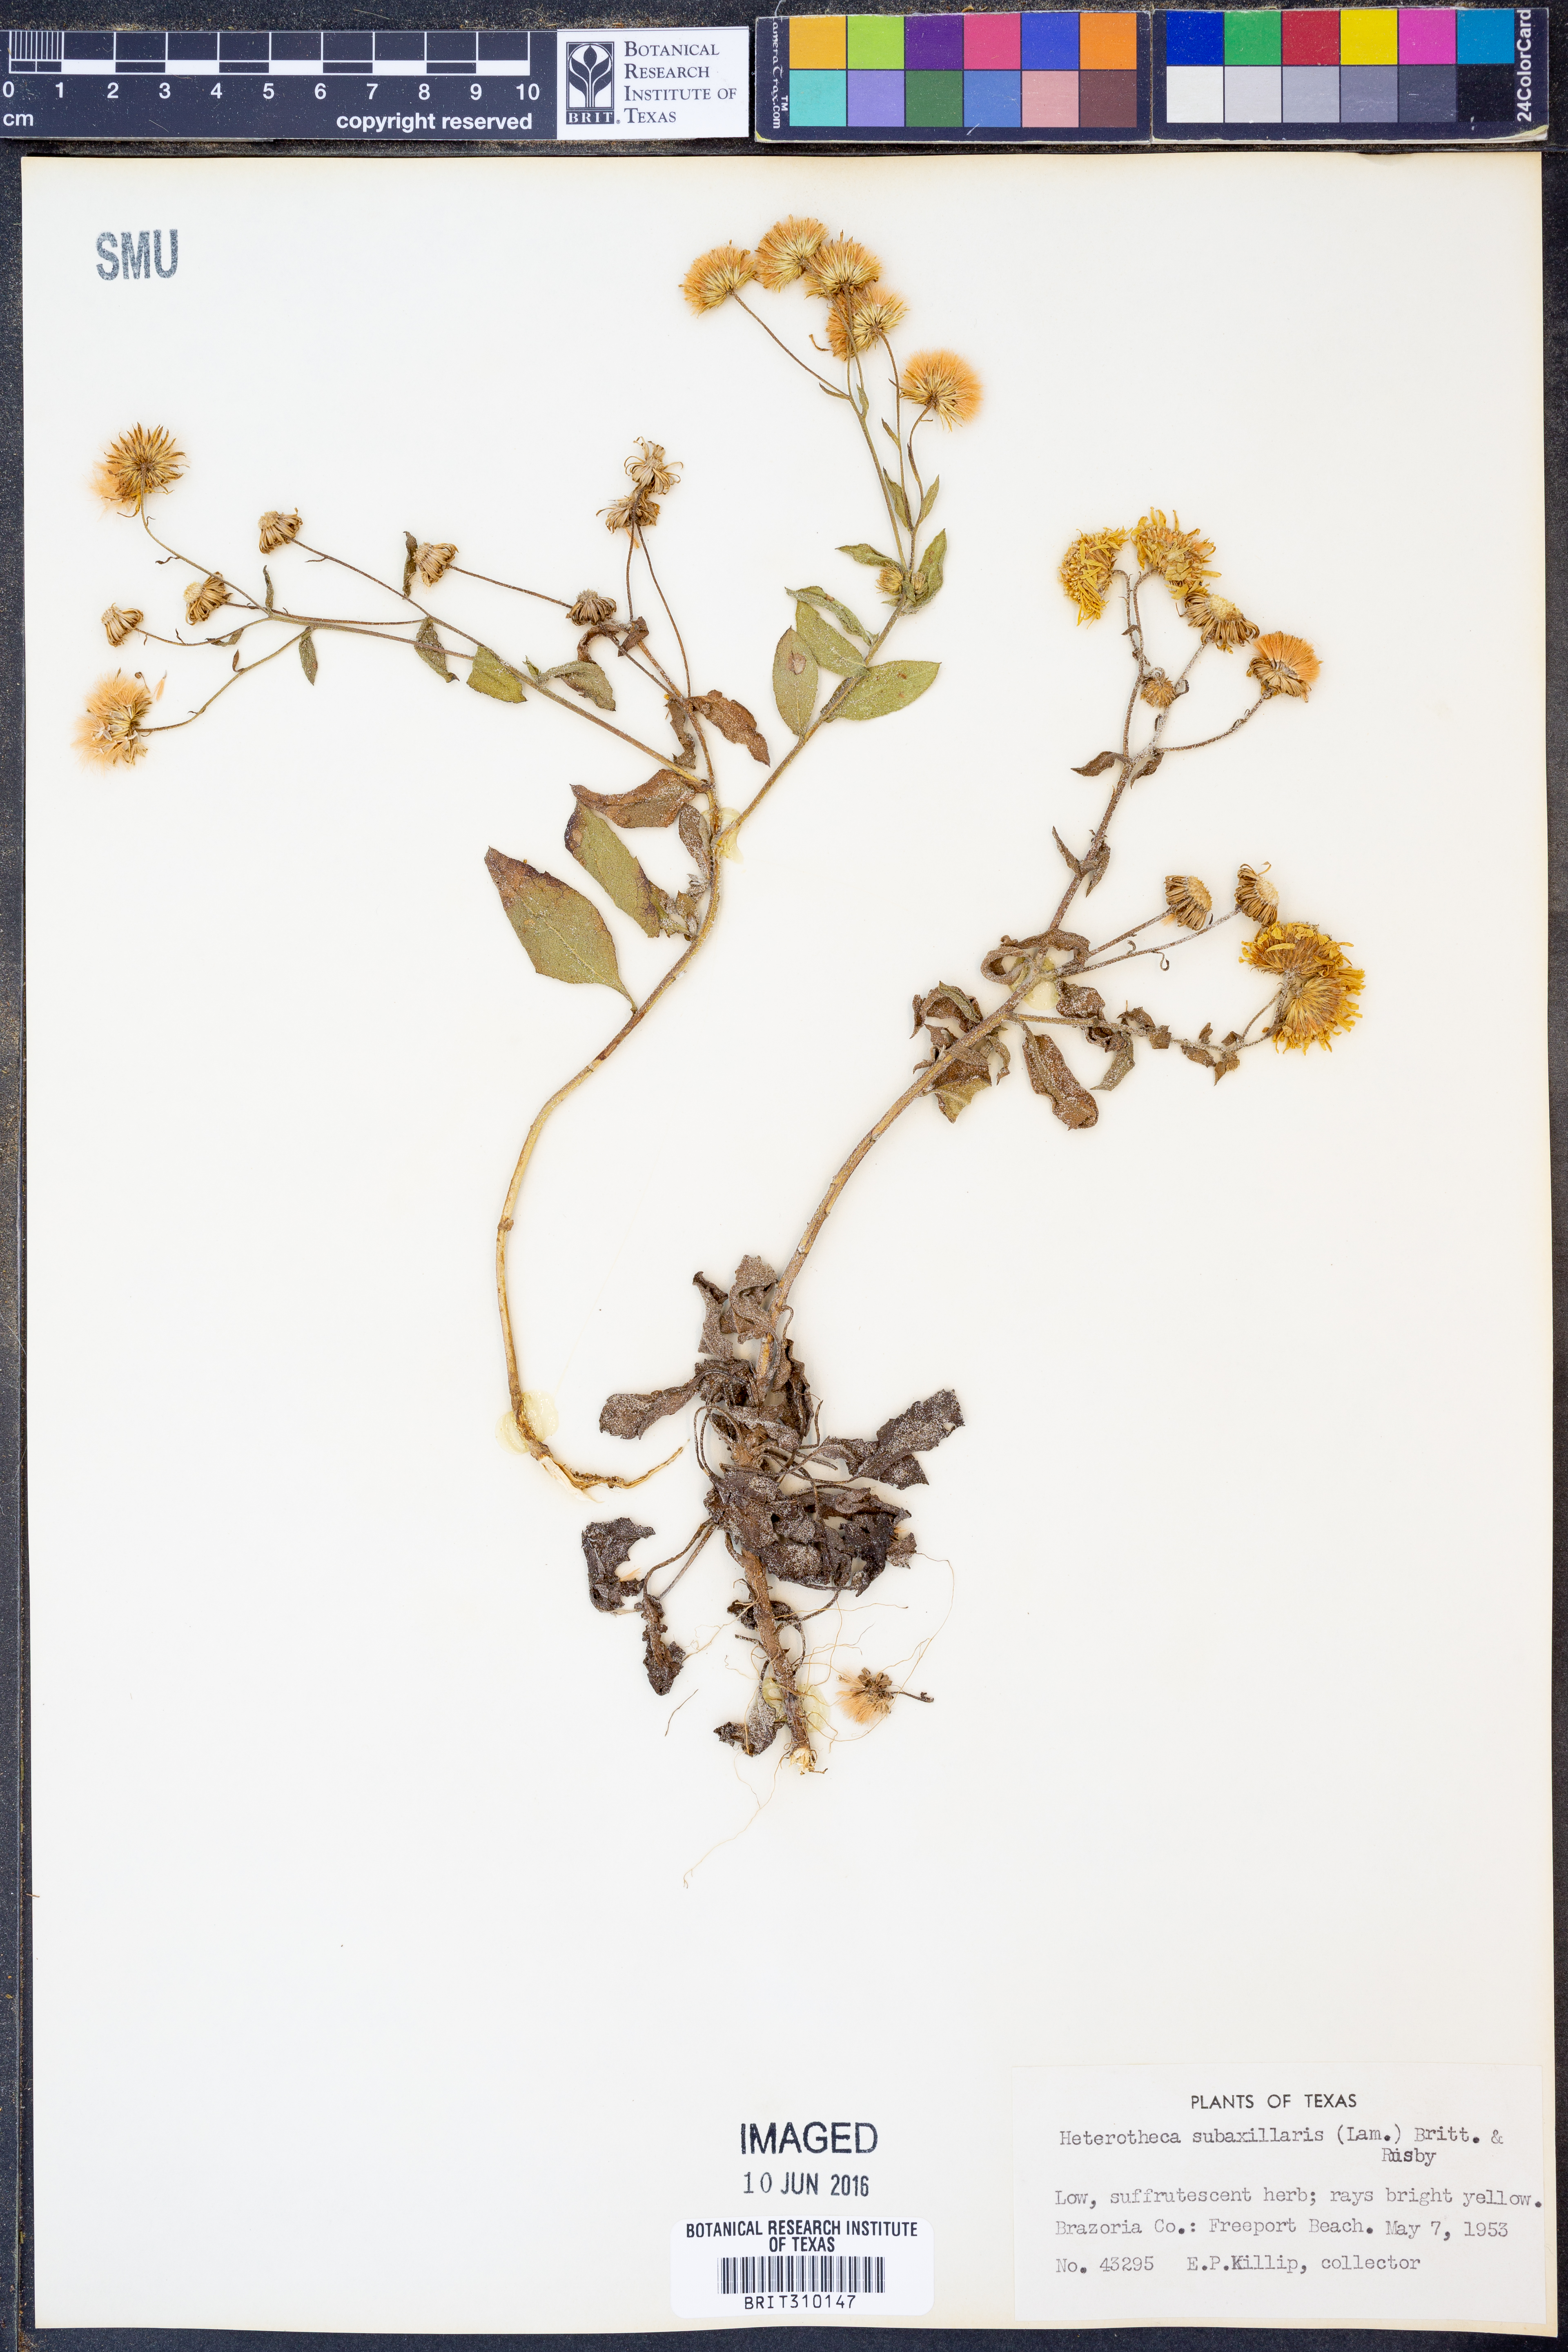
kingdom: Plantae
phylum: Tracheophyta
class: Magnoliopsida
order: Asterales
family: Asteraceae
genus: Heterotheca
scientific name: Heterotheca subaxillaris
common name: Camphorweed
